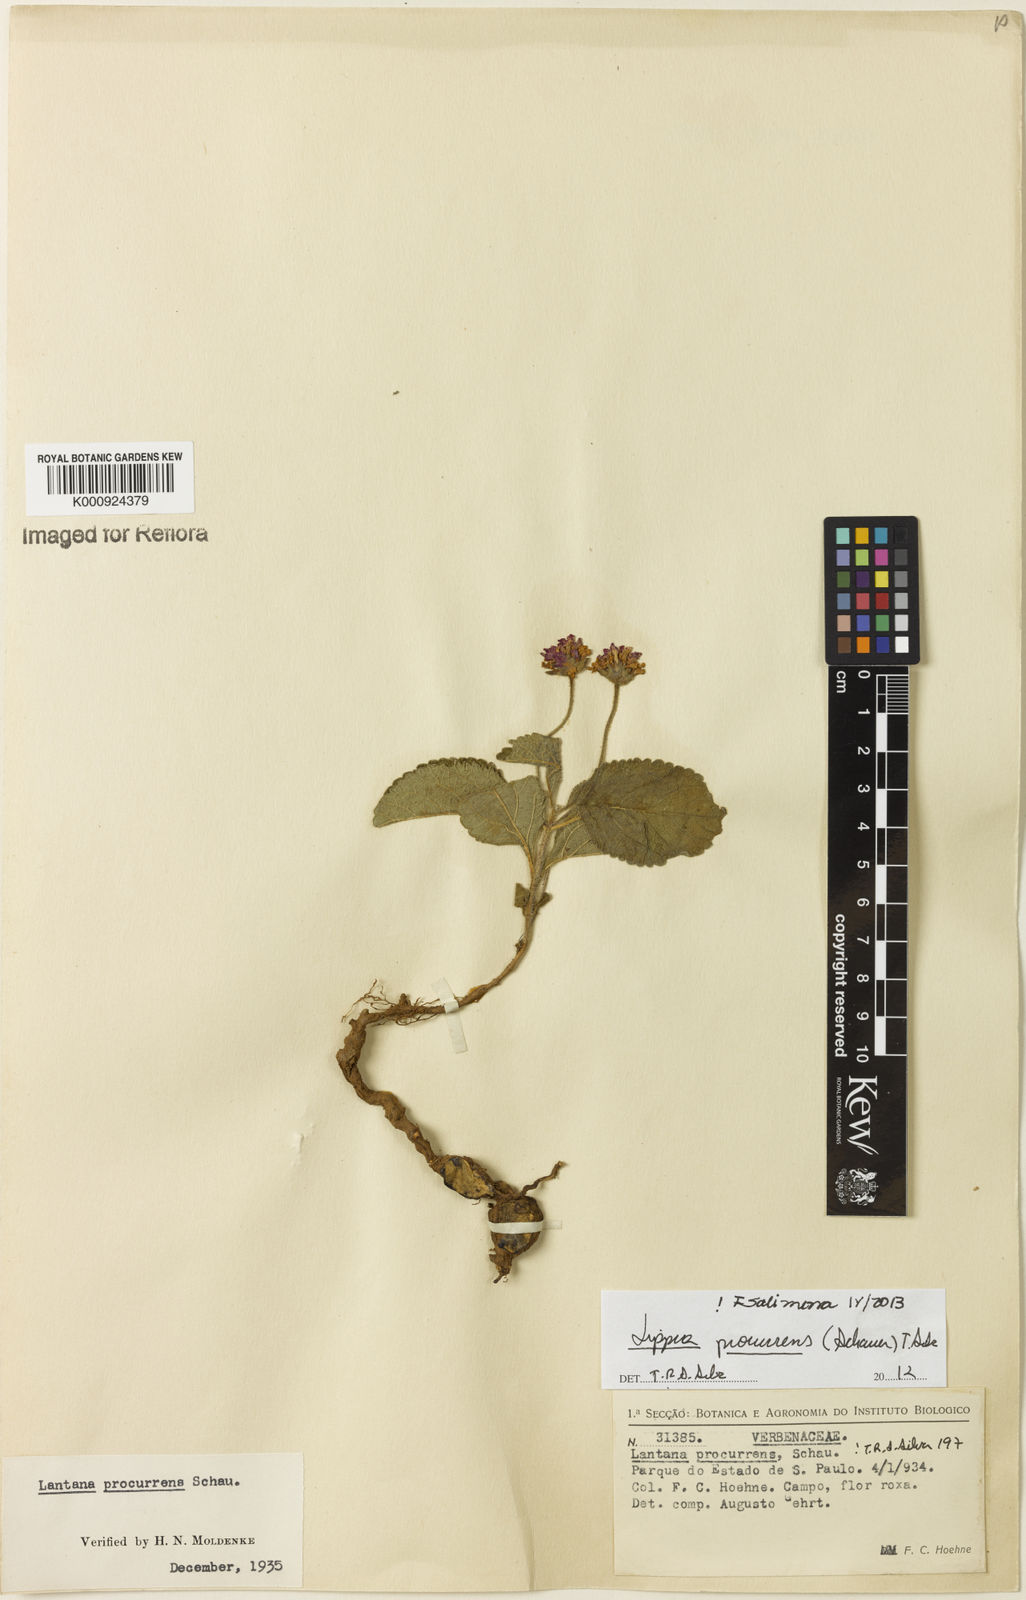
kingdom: Plantae
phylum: Tracheophyta
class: Magnoliopsida
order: Lamiales
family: Verbenaceae
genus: Lippia
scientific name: Lippia procurrens
